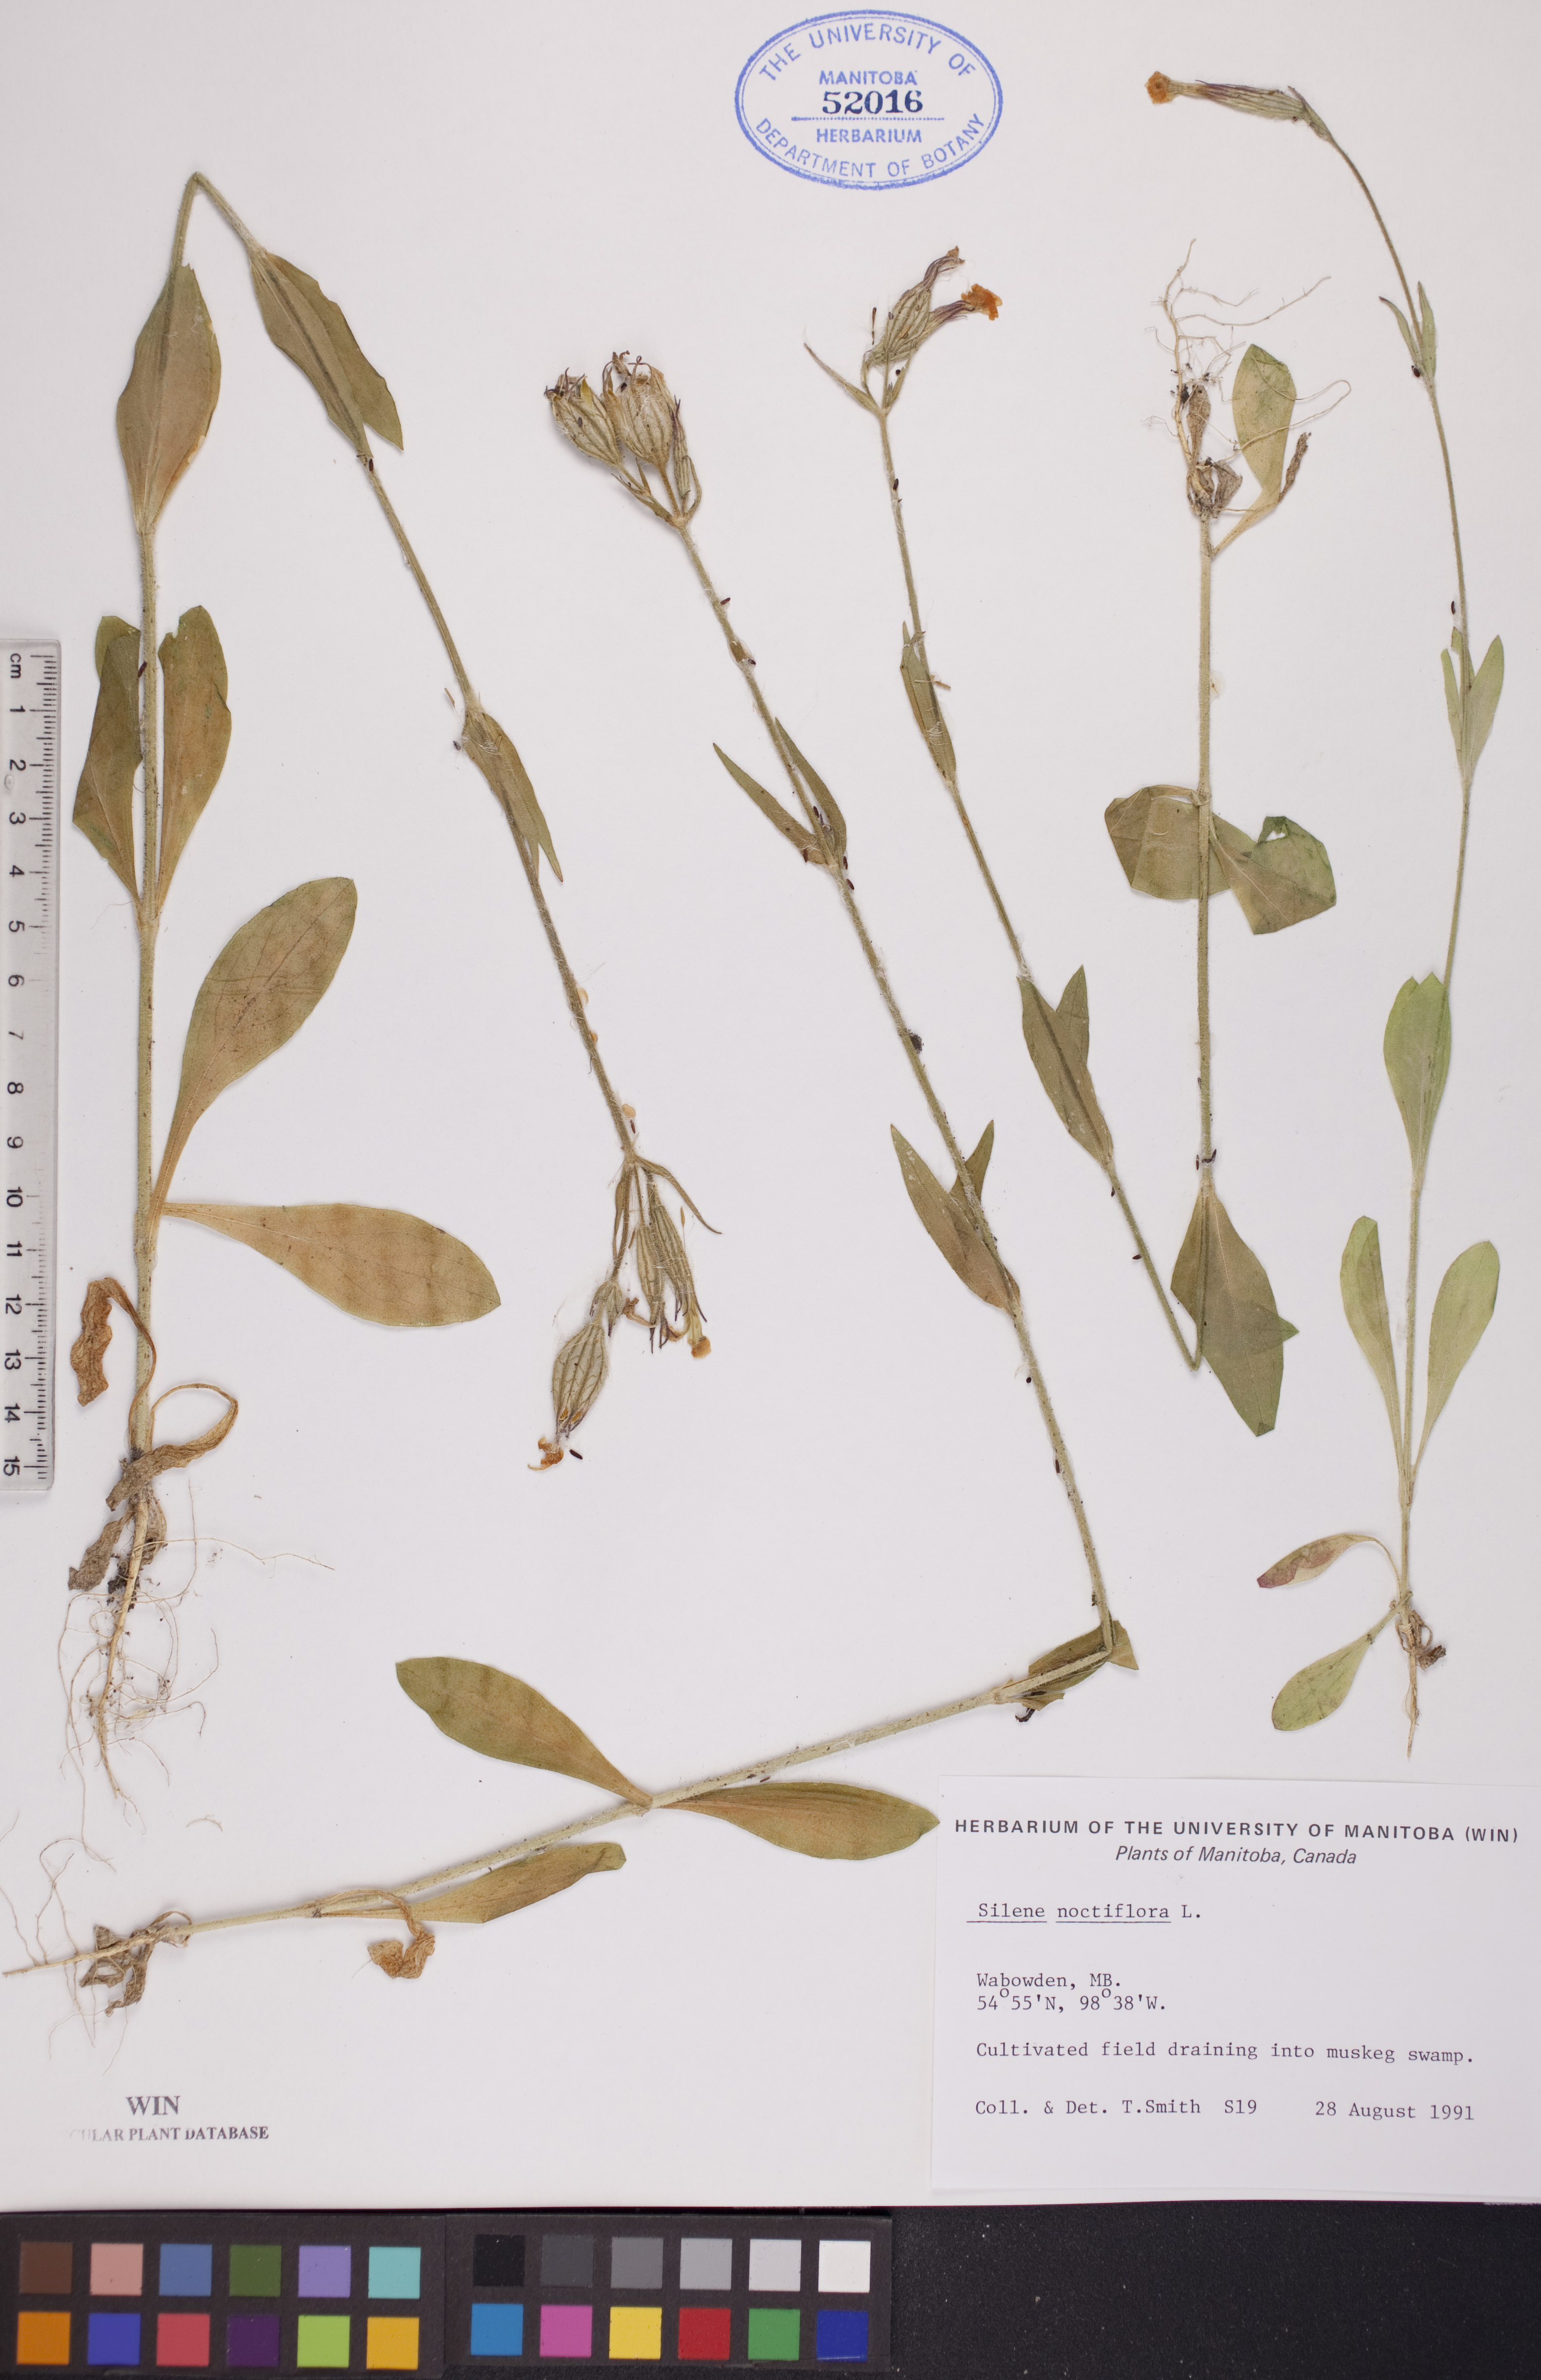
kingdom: Plantae
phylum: Tracheophyta
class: Magnoliopsida
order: Caryophyllales
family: Caryophyllaceae
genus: Silene
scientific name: Silene noctiflora
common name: Night-flowering catchfly
